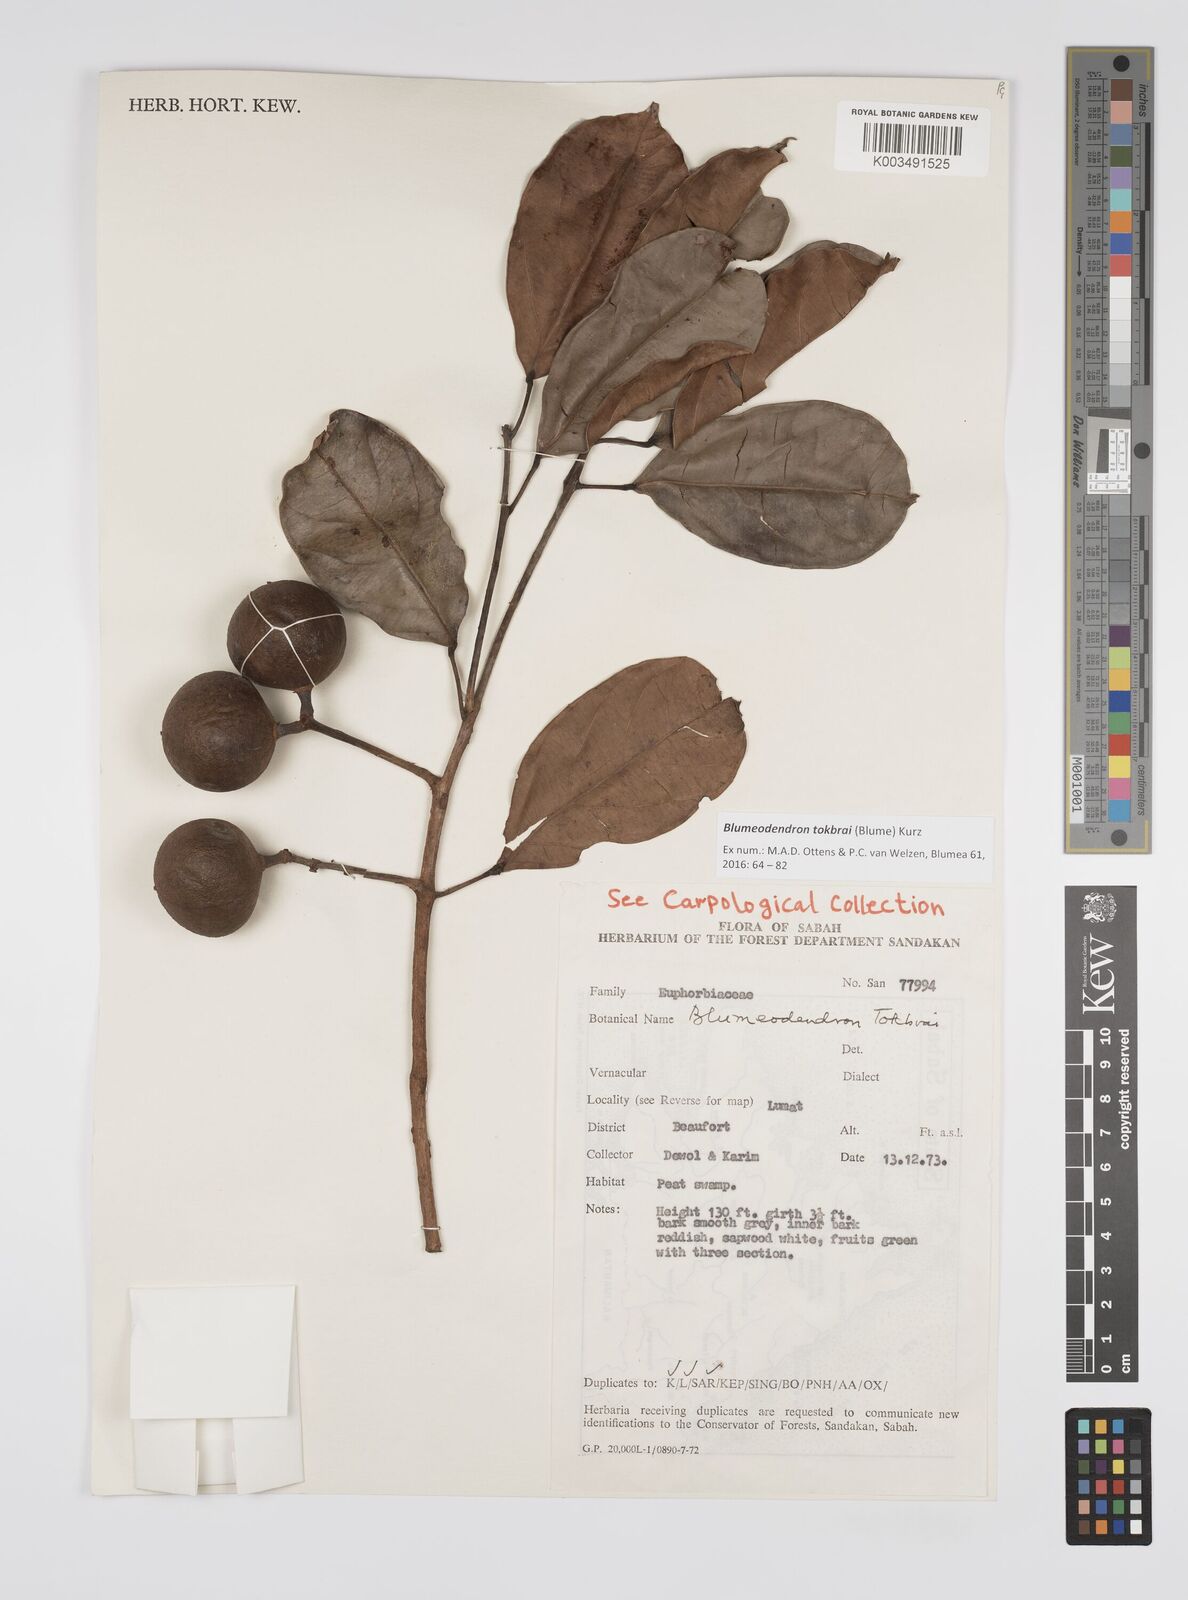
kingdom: Plantae
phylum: Tracheophyta
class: Magnoliopsida
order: Malpighiales
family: Euphorbiaceae
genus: Blumeodendron
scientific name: Blumeodendron tokbrai
